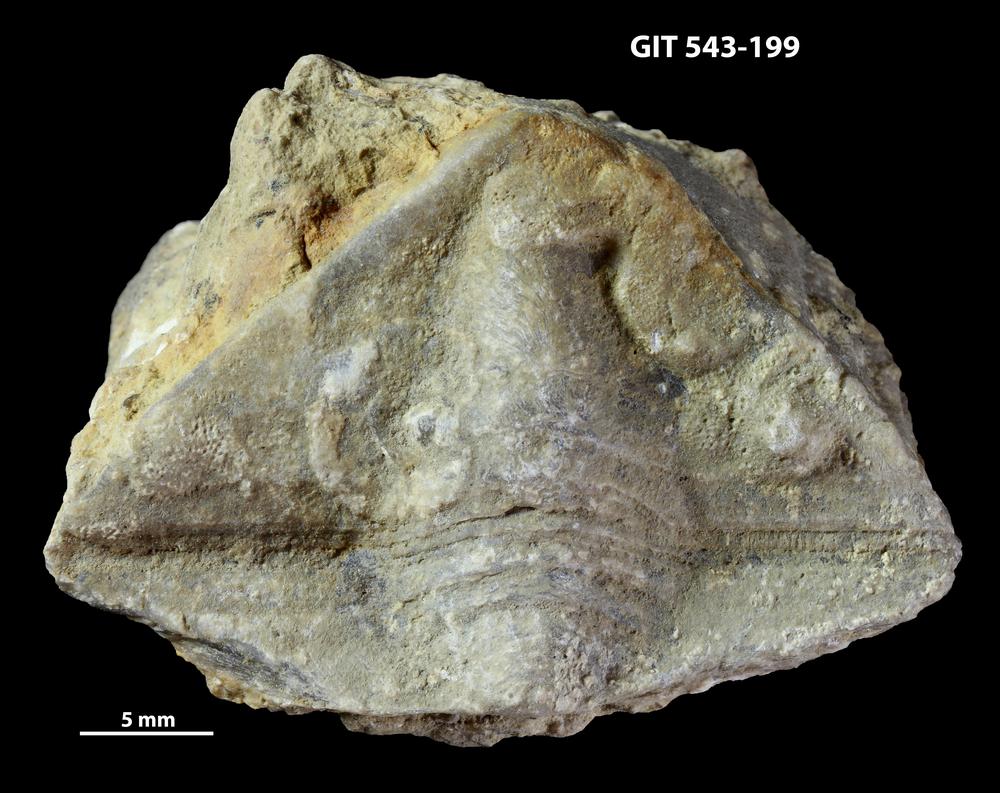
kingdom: Animalia
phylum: Brachiopoda
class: Rhynchonellata
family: Clitambonitidae
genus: Clinambon
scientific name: Clinambon anomalus
